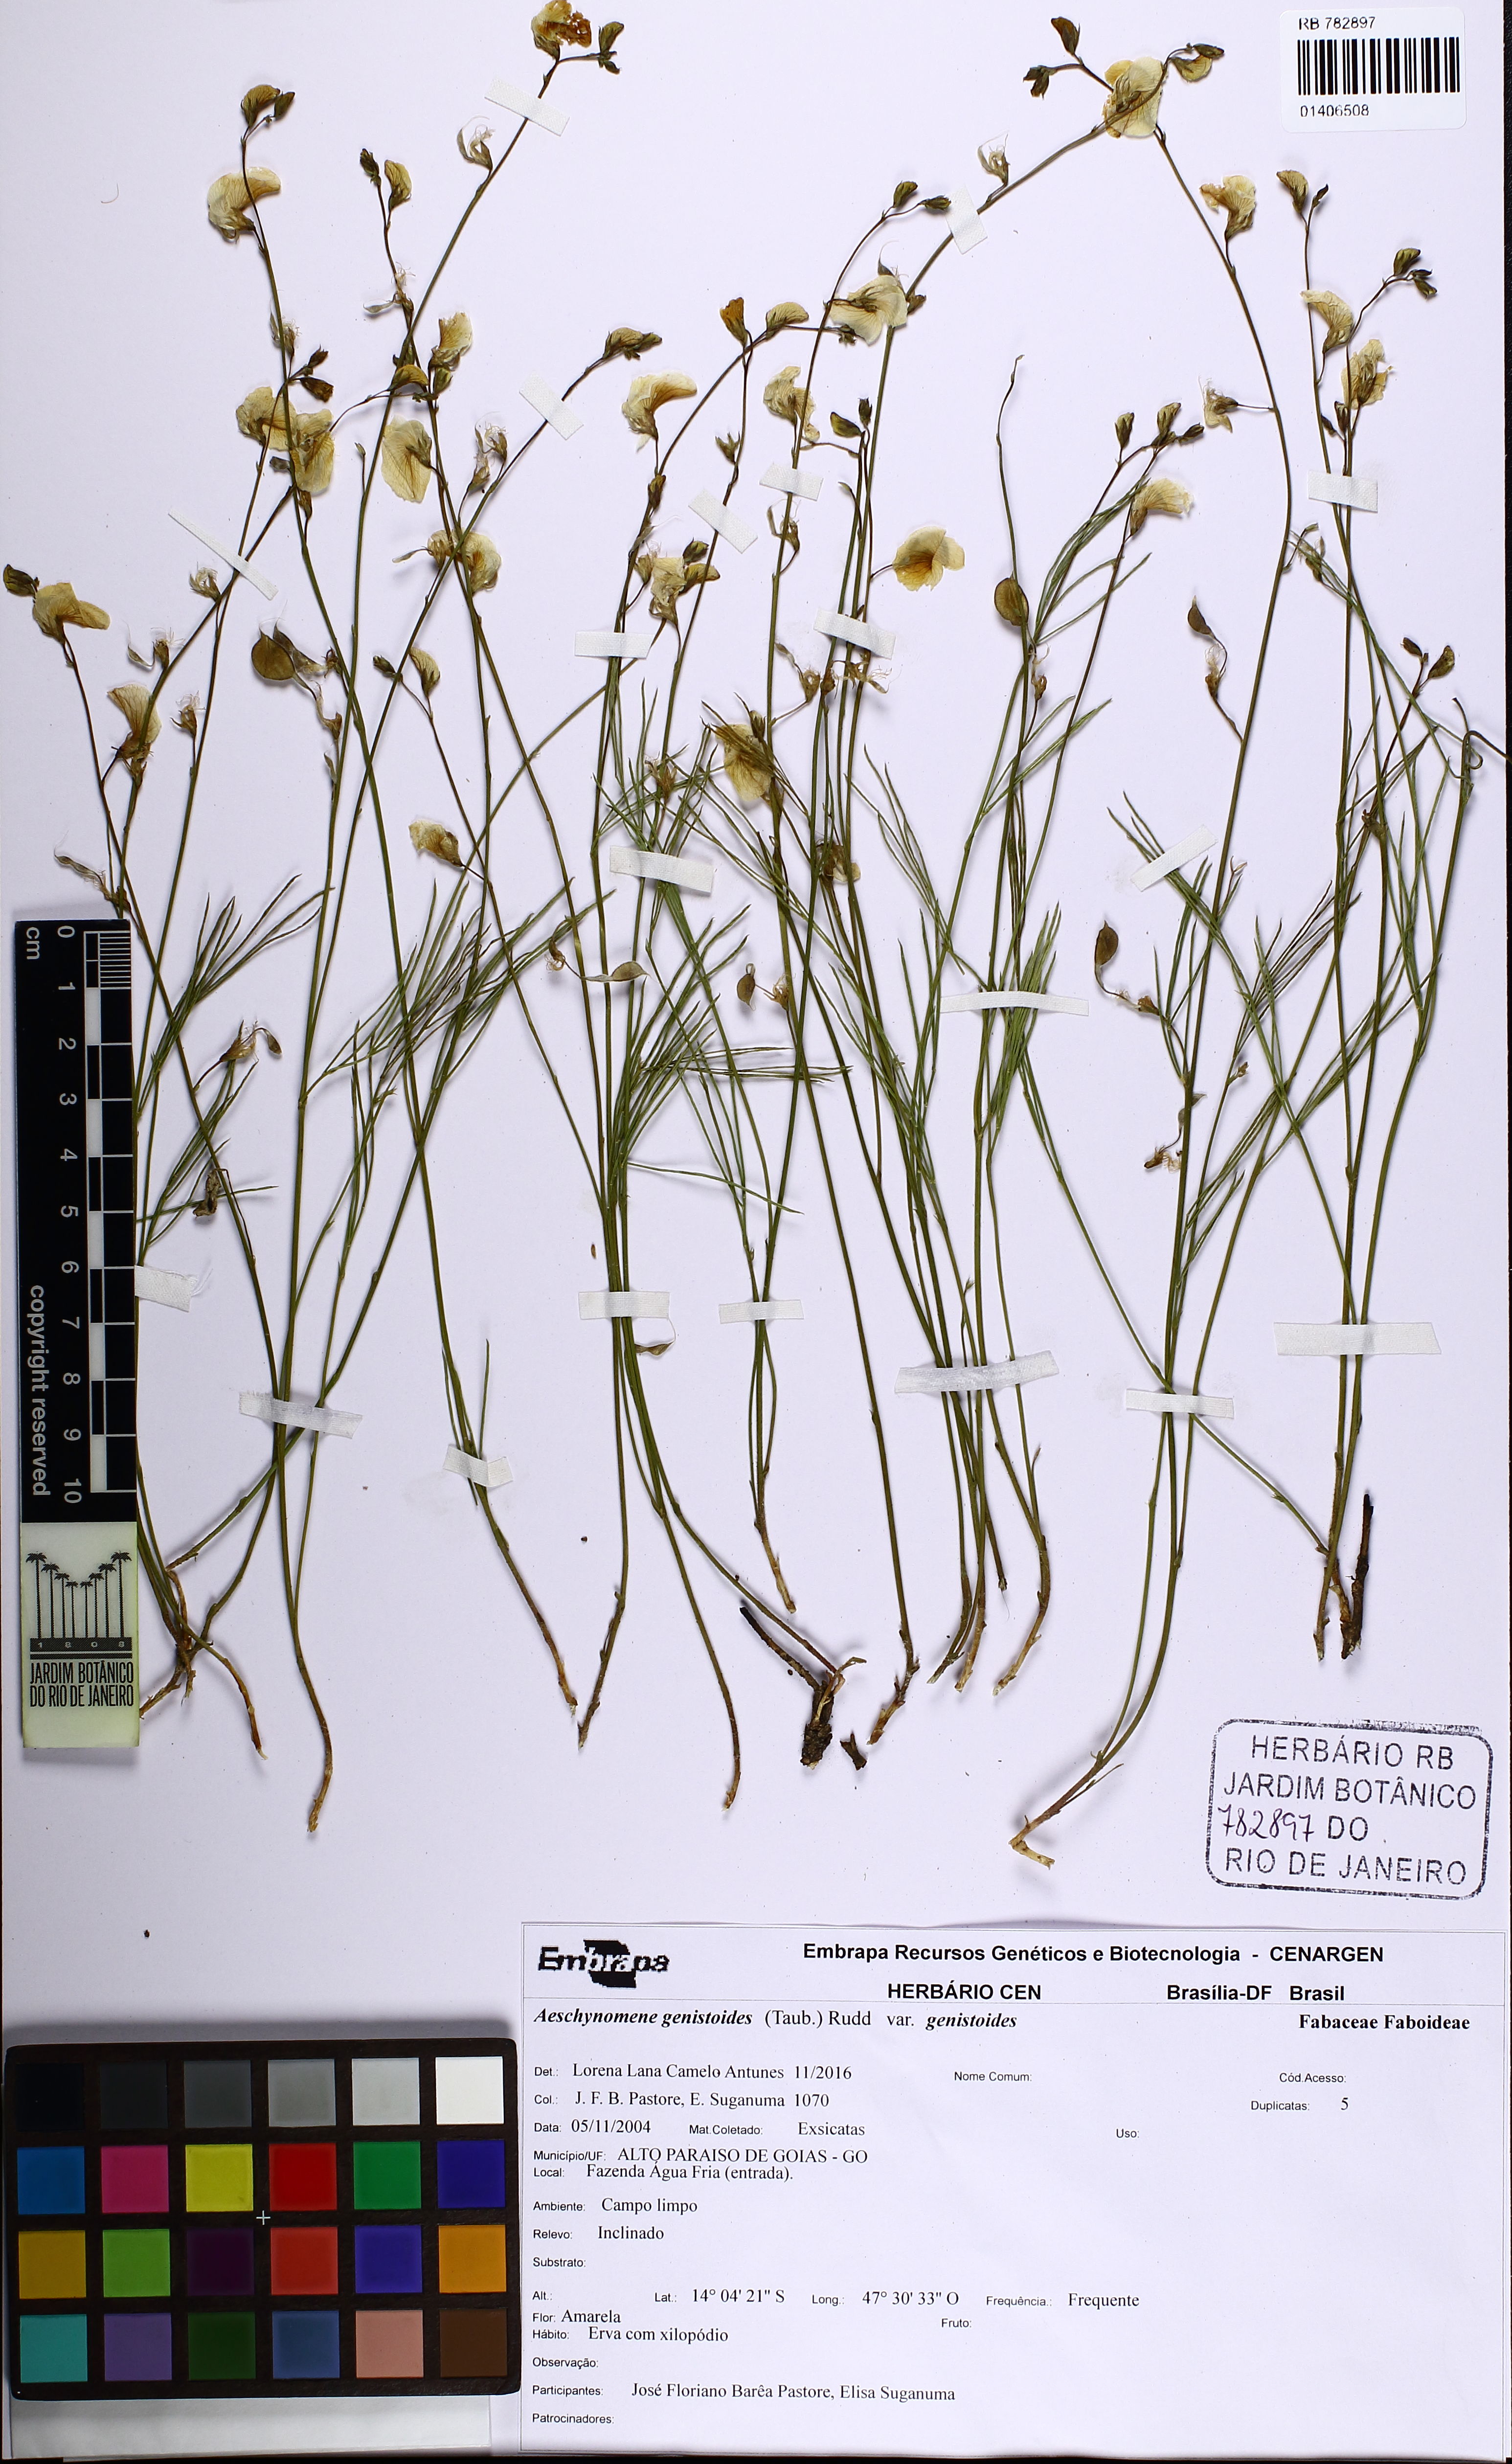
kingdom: Plantae
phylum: Tracheophyta
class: Magnoliopsida
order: Fabales
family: Fabaceae
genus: Ctenodon
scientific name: Ctenodon genistoides
